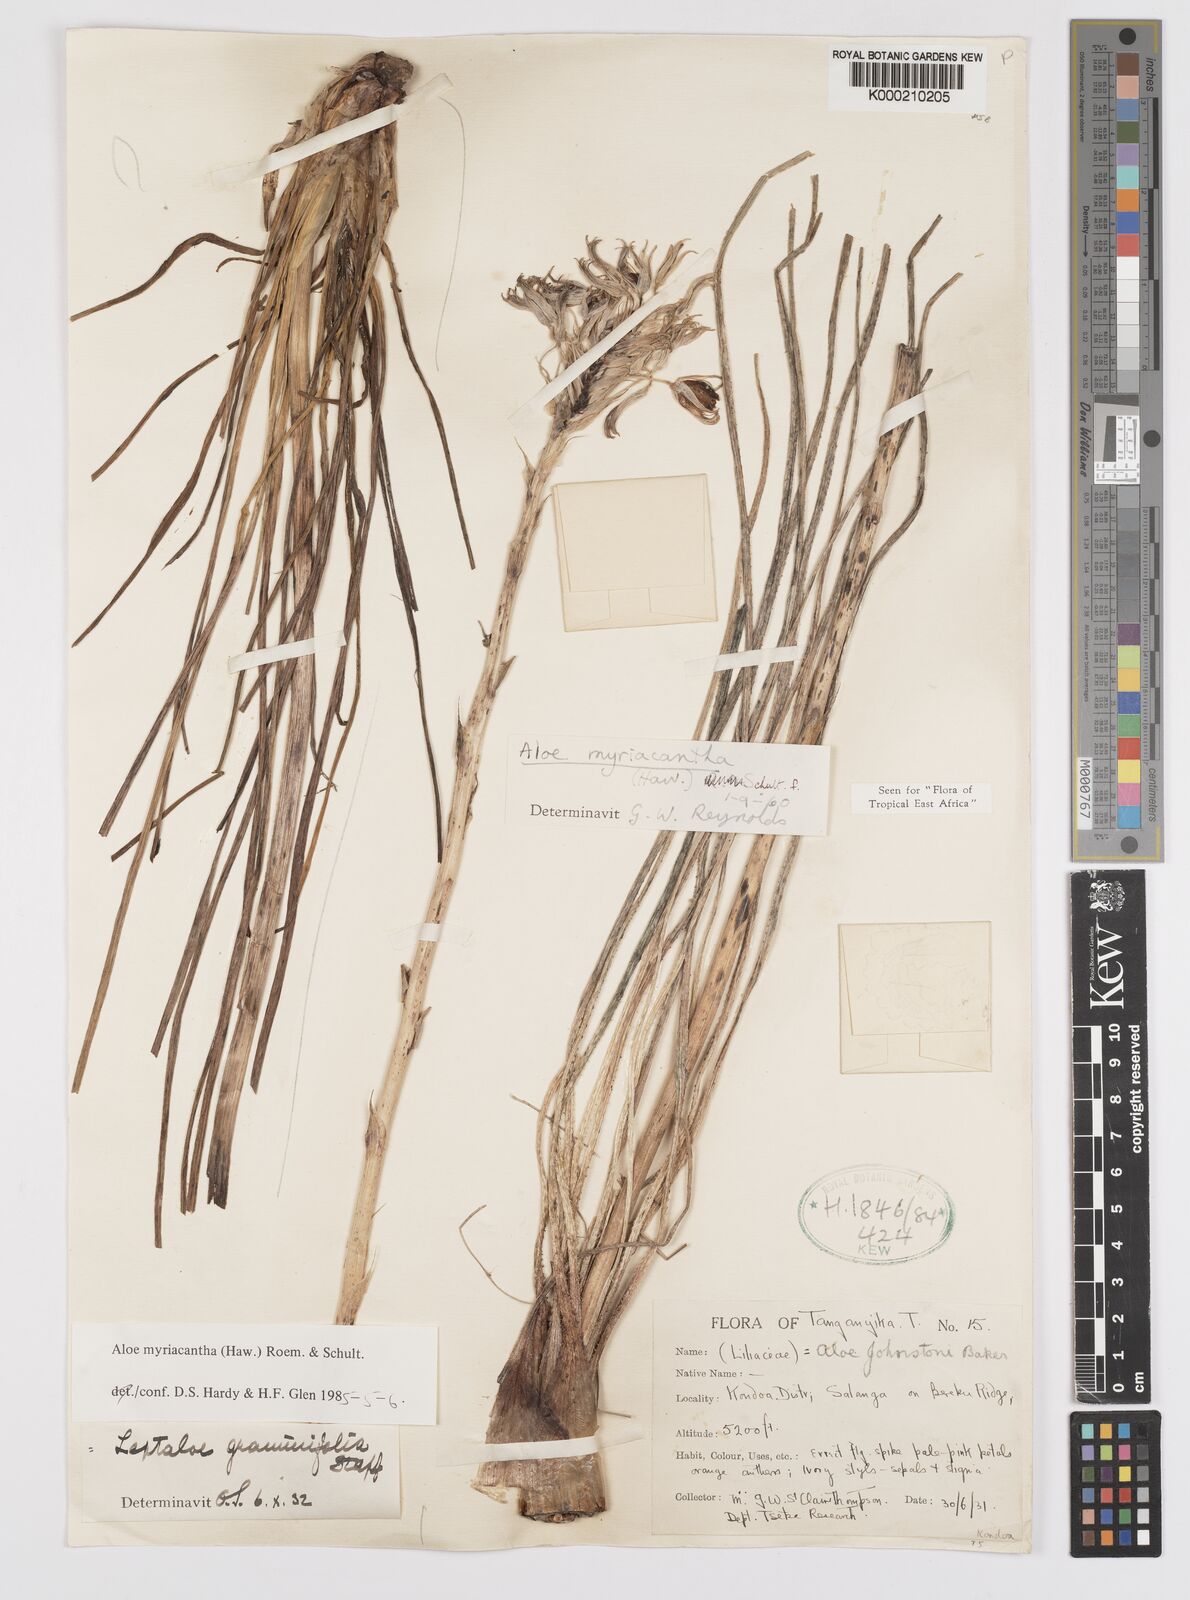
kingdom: Plantae
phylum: Tracheophyta
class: Liliopsida
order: Asparagales
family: Asphodelaceae
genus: Aloe
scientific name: Aloe
